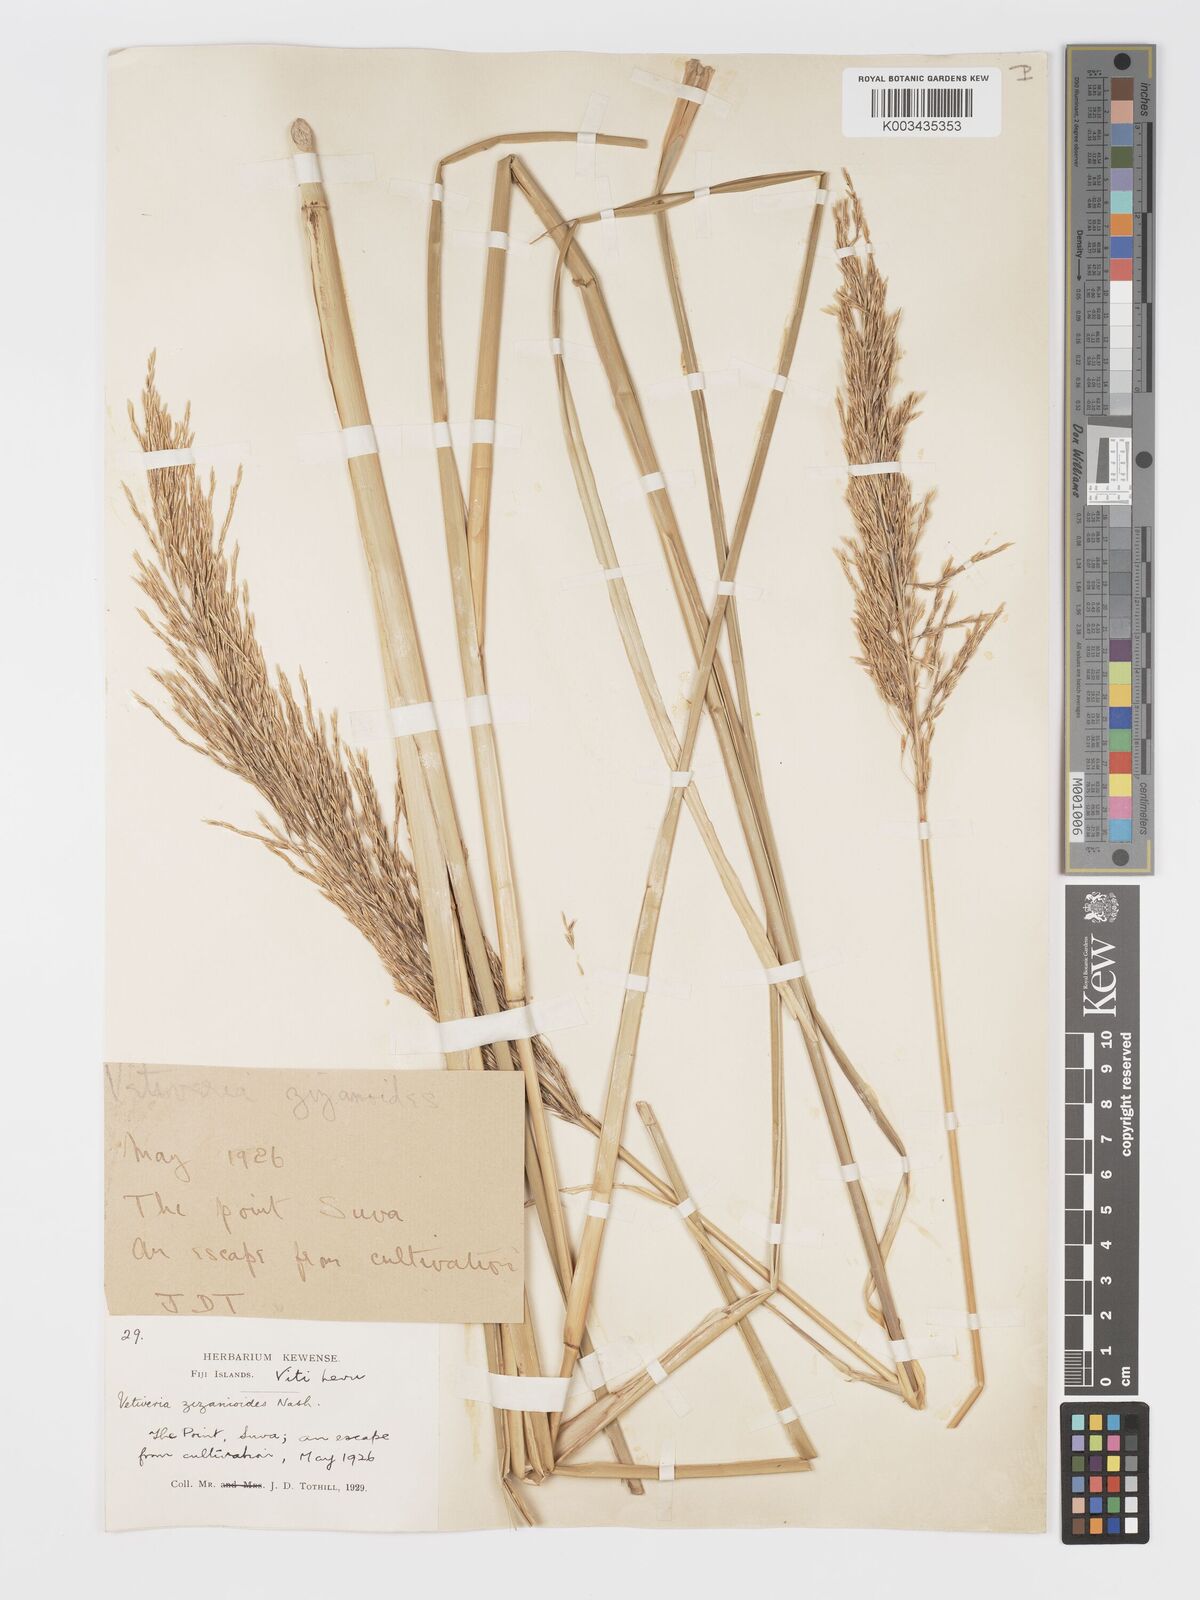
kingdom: Plantae
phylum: Tracheophyta
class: Liliopsida
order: Poales
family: Poaceae
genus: Chrysopogon
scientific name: Chrysopogon zizanioides
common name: False beardgrass
